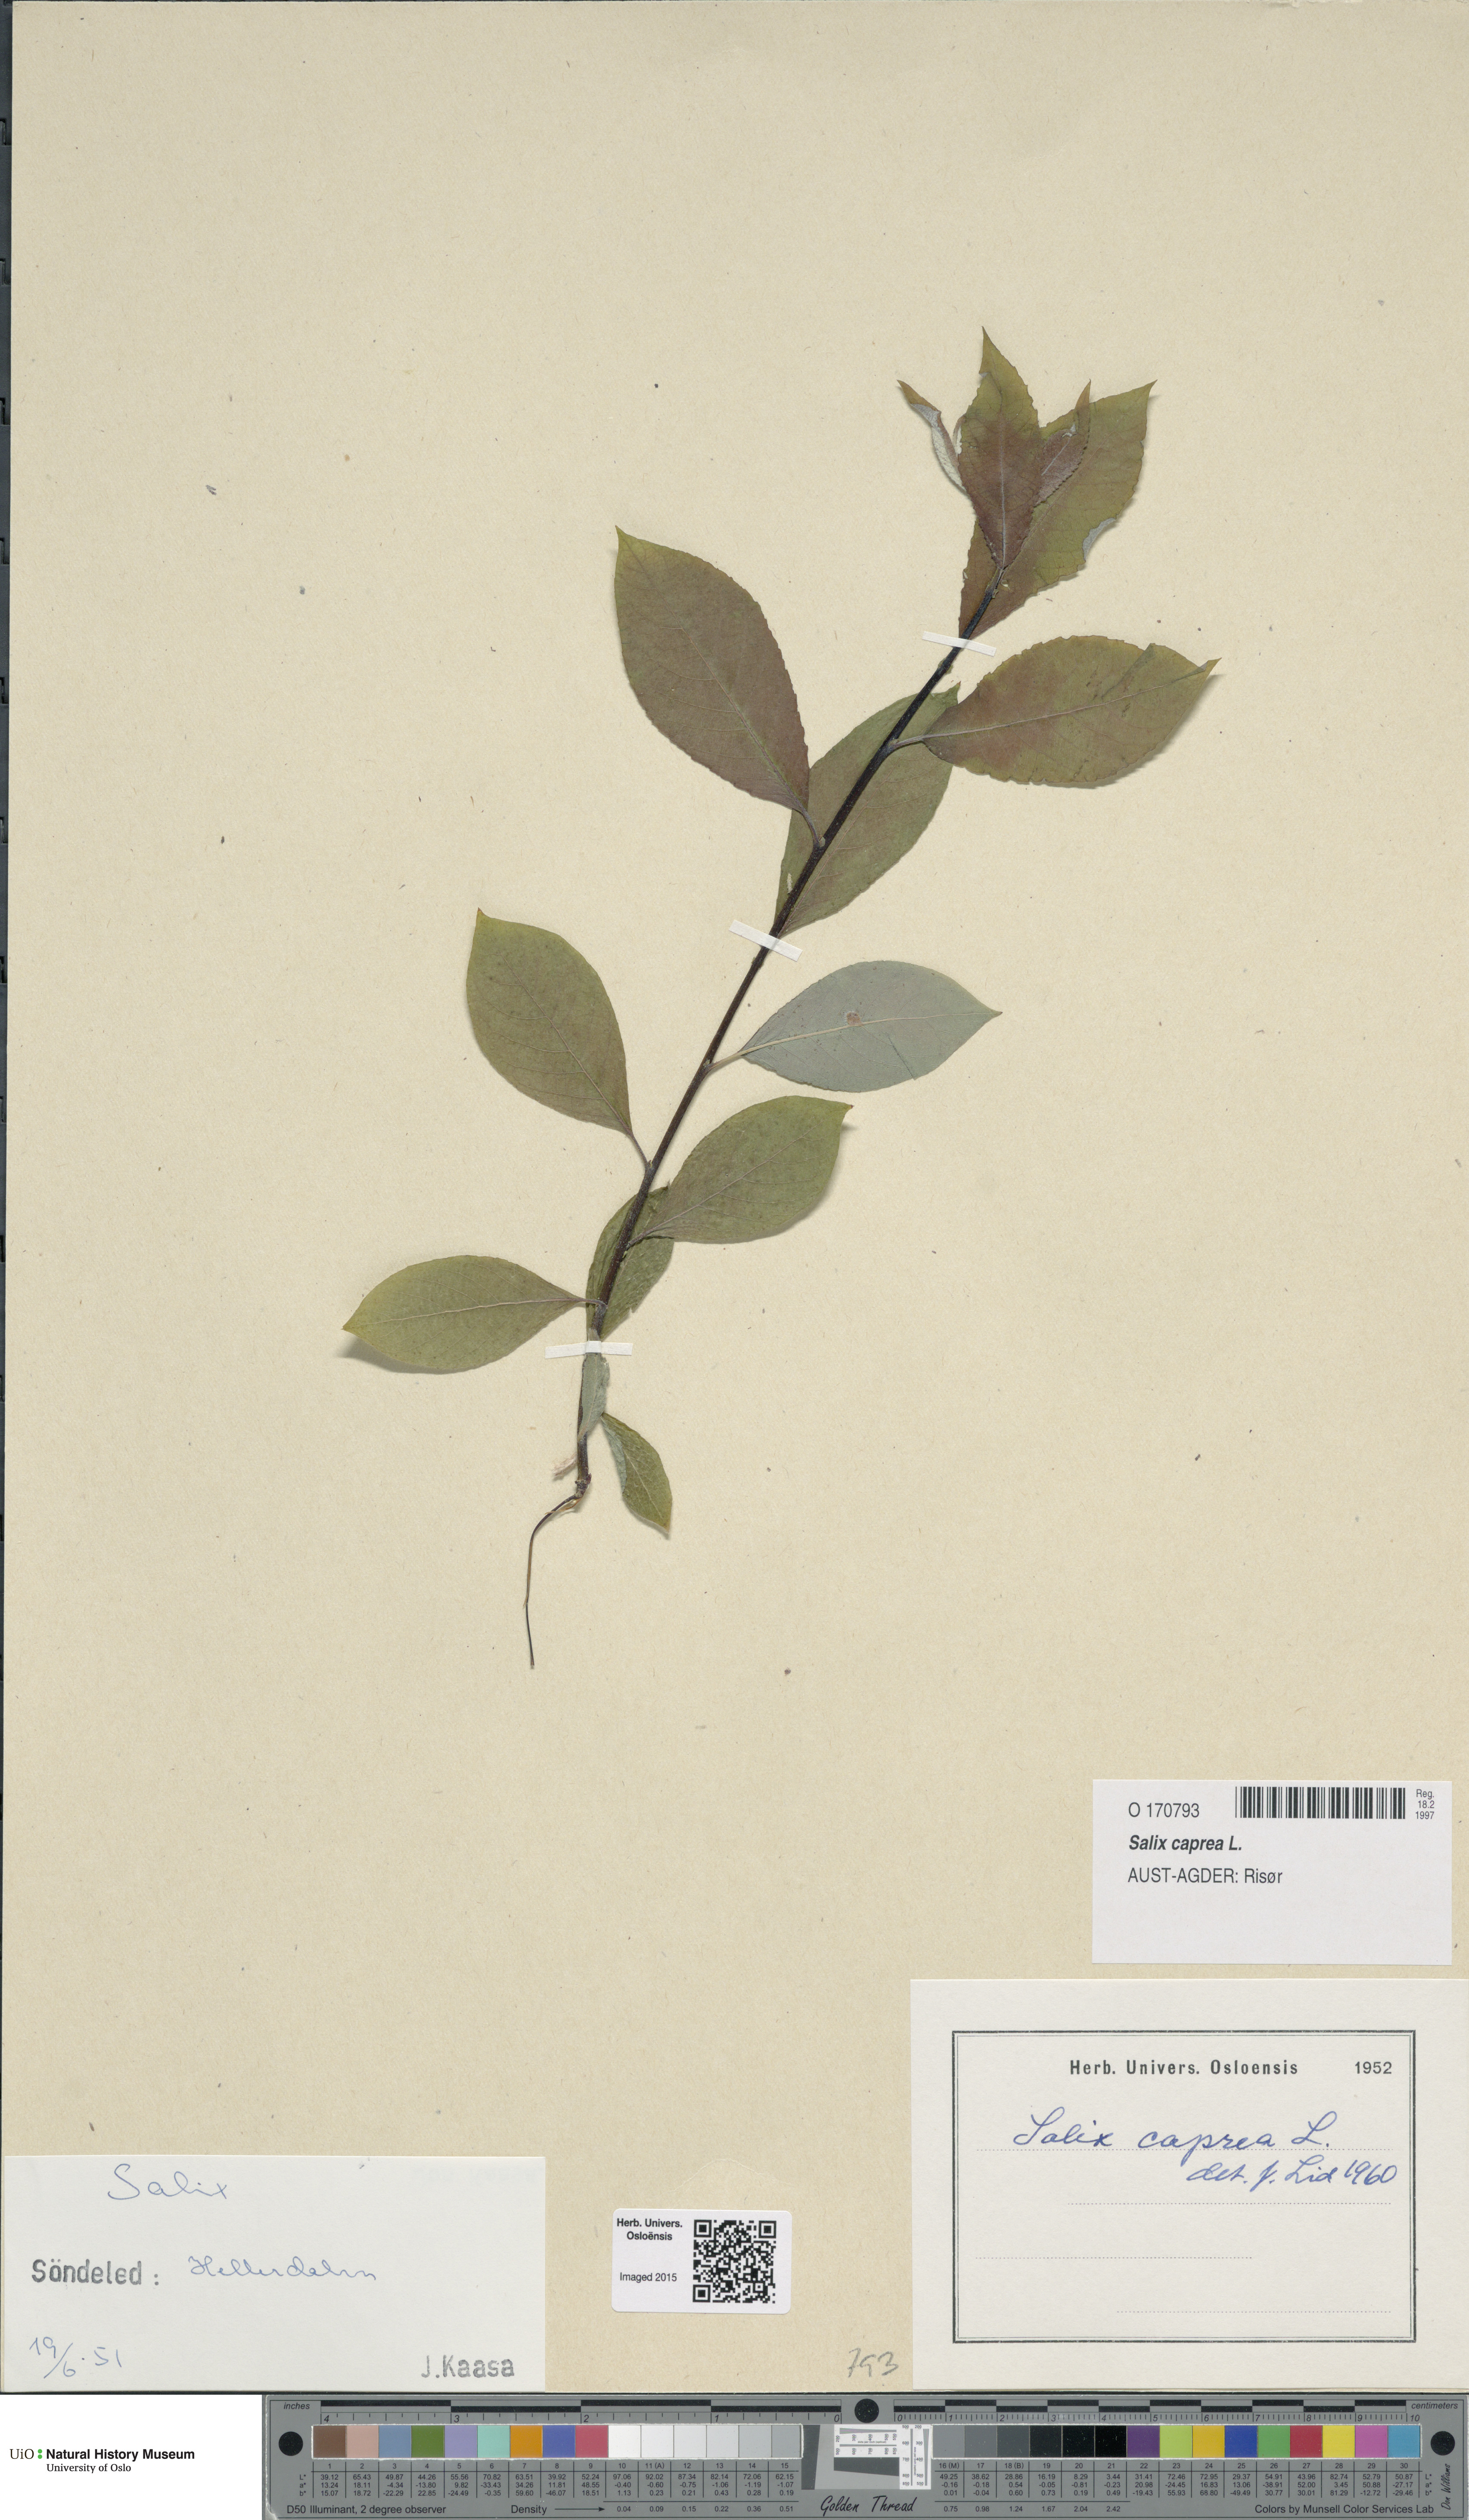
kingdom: Plantae
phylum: Tracheophyta
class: Magnoliopsida
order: Malpighiales
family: Salicaceae
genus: Salix
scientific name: Salix caprea
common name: Goat willow
